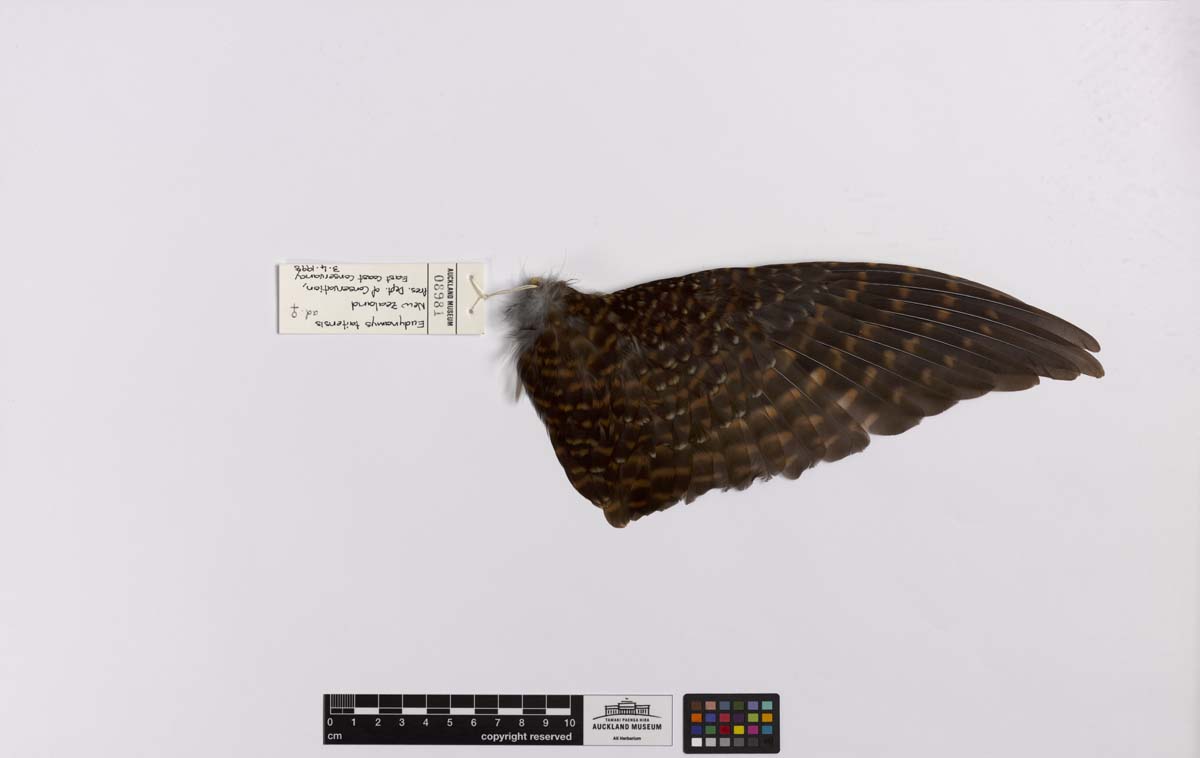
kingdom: Animalia
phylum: Chordata
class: Aves
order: Cuculiformes
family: Cuculidae
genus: Urodynamis
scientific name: Urodynamis taitensis
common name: Long-tailed koel
